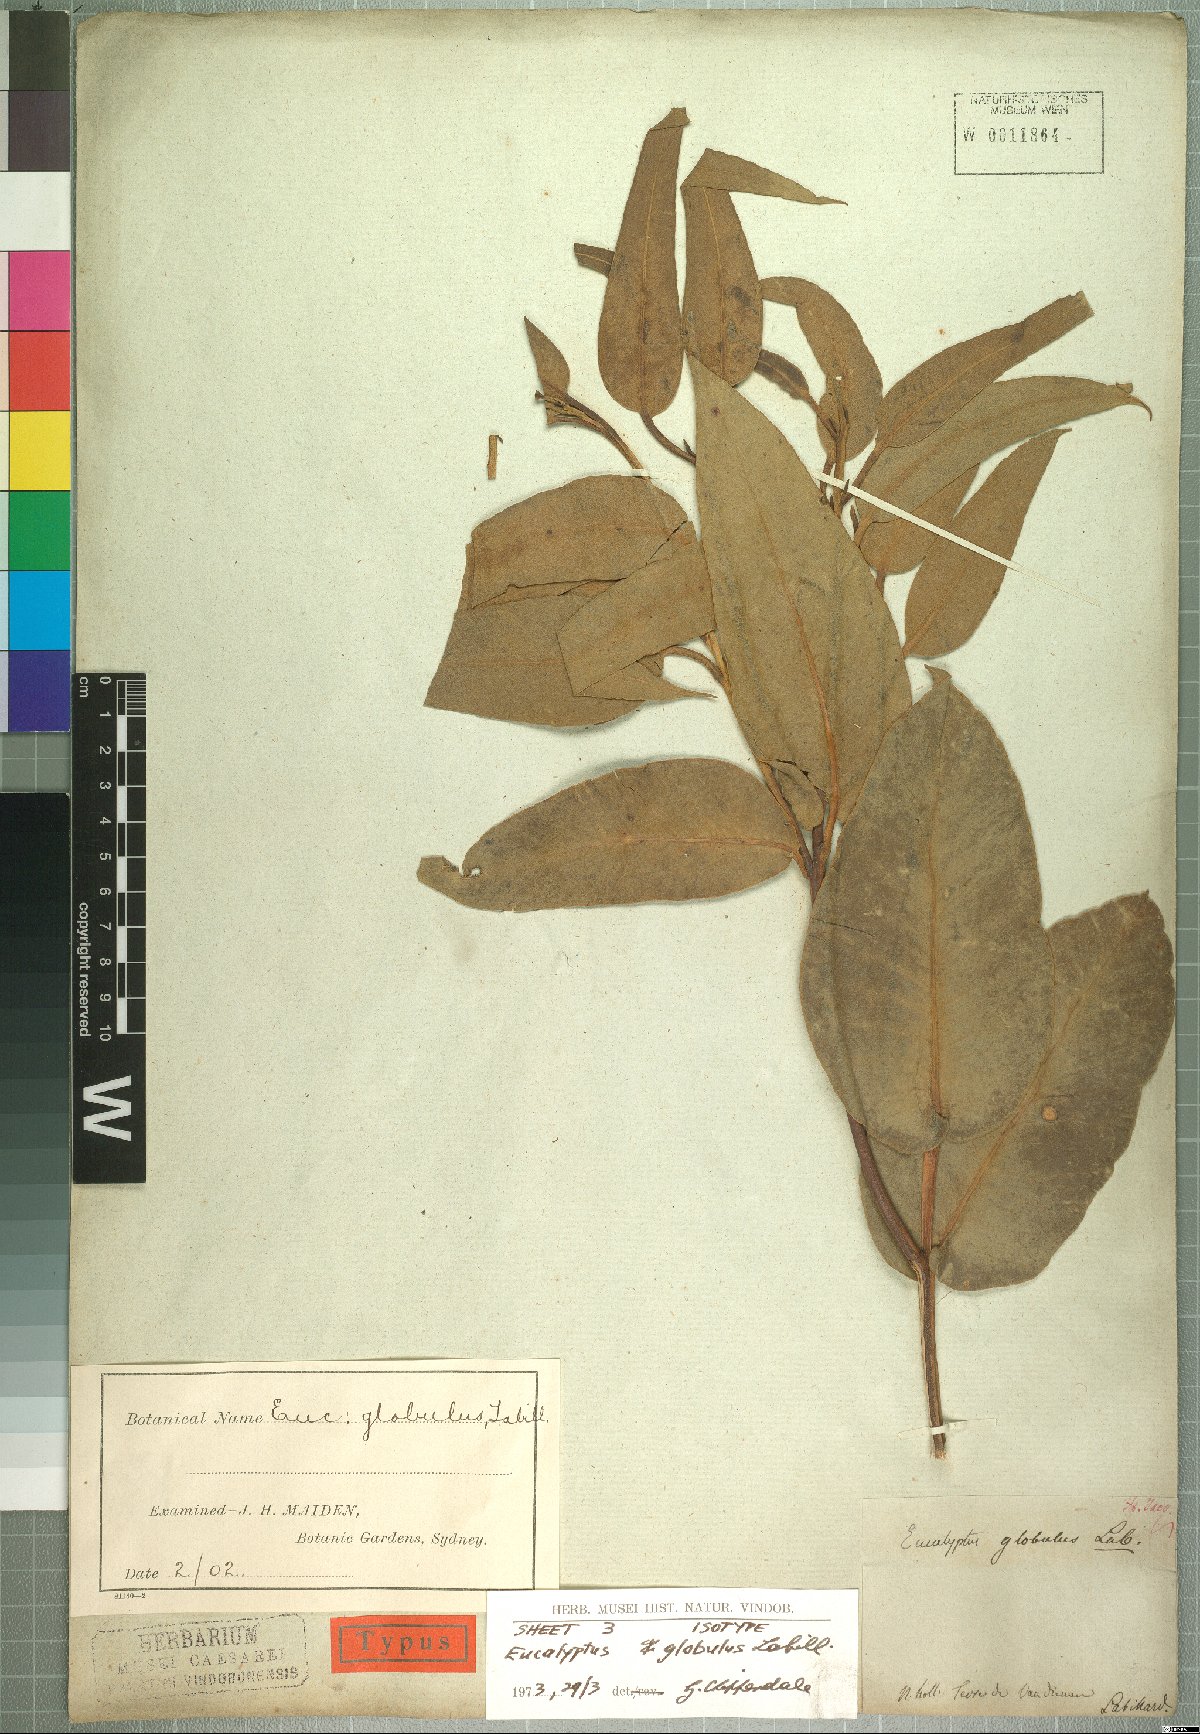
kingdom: Plantae
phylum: Tracheophyta
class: Magnoliopsida
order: Myrtales
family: Myrtaceae
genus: Eucalyptus
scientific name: Eucalyptus globulus
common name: Southern blue-gum
